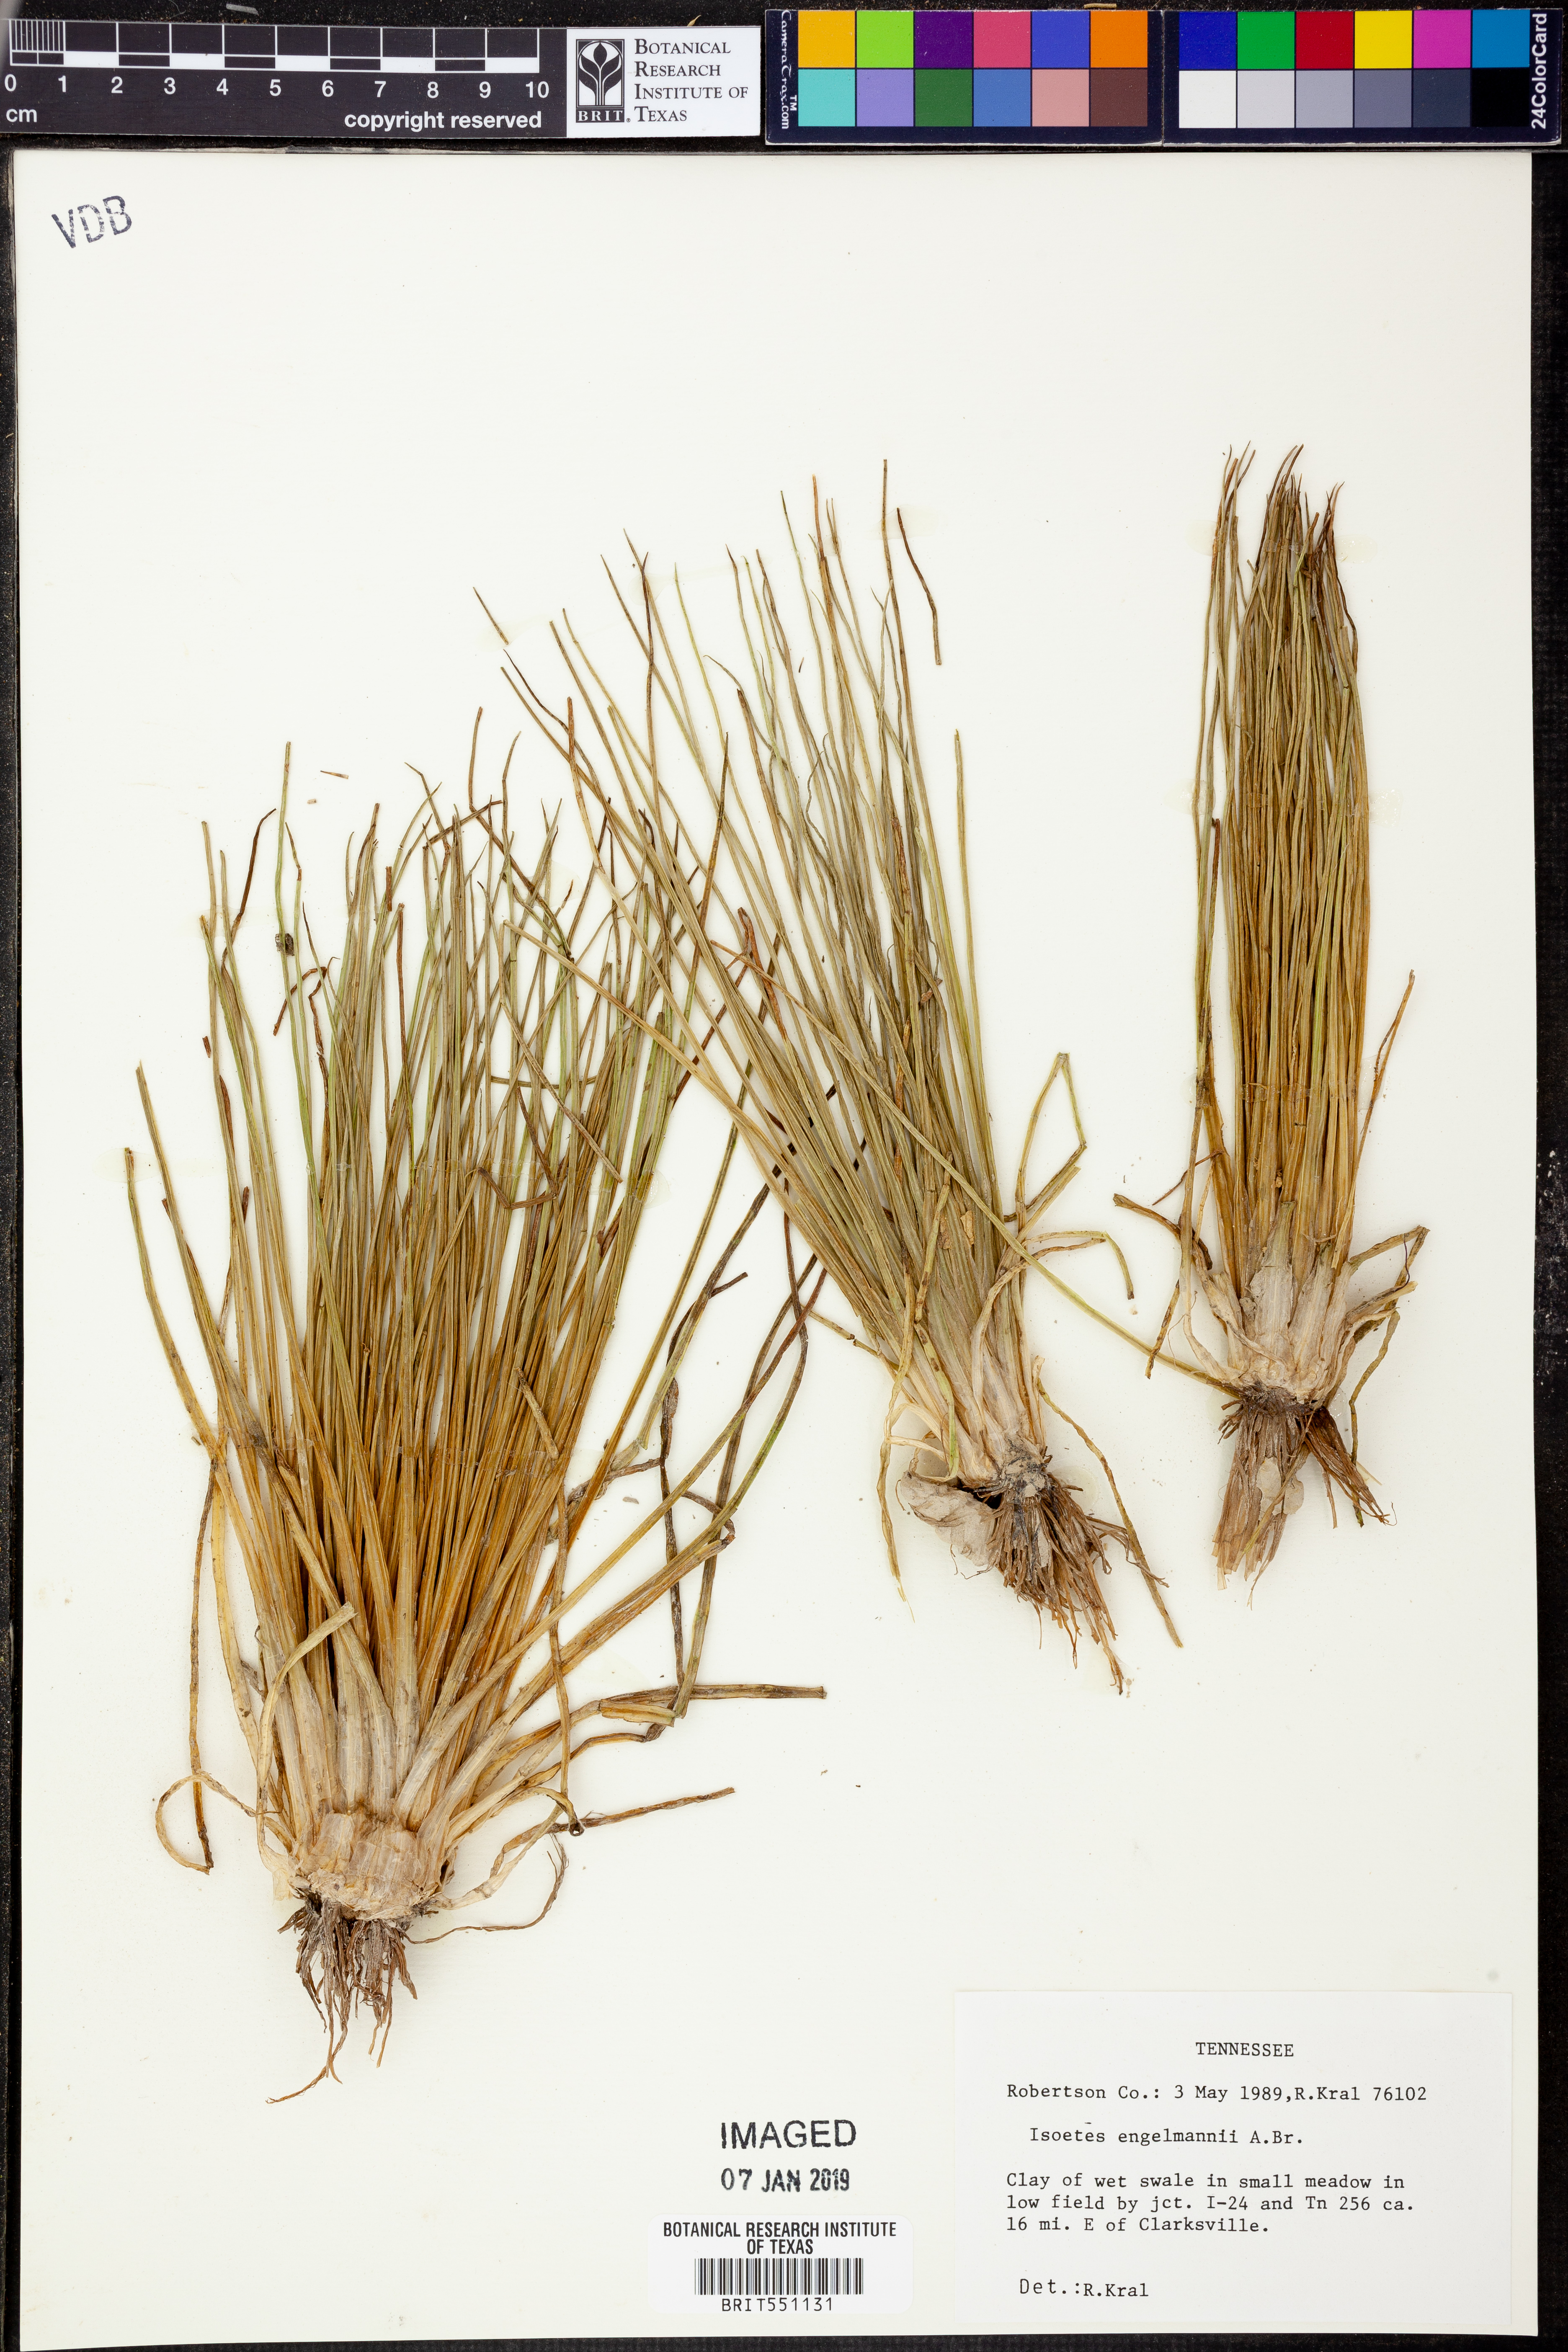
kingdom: Plantae
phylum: Tracheophyta
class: Lycopodiopsida
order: Isoetales
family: Isoetaceae
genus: Isoetes
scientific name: Isoetes engelmannii
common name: Engelmann's quillwort
